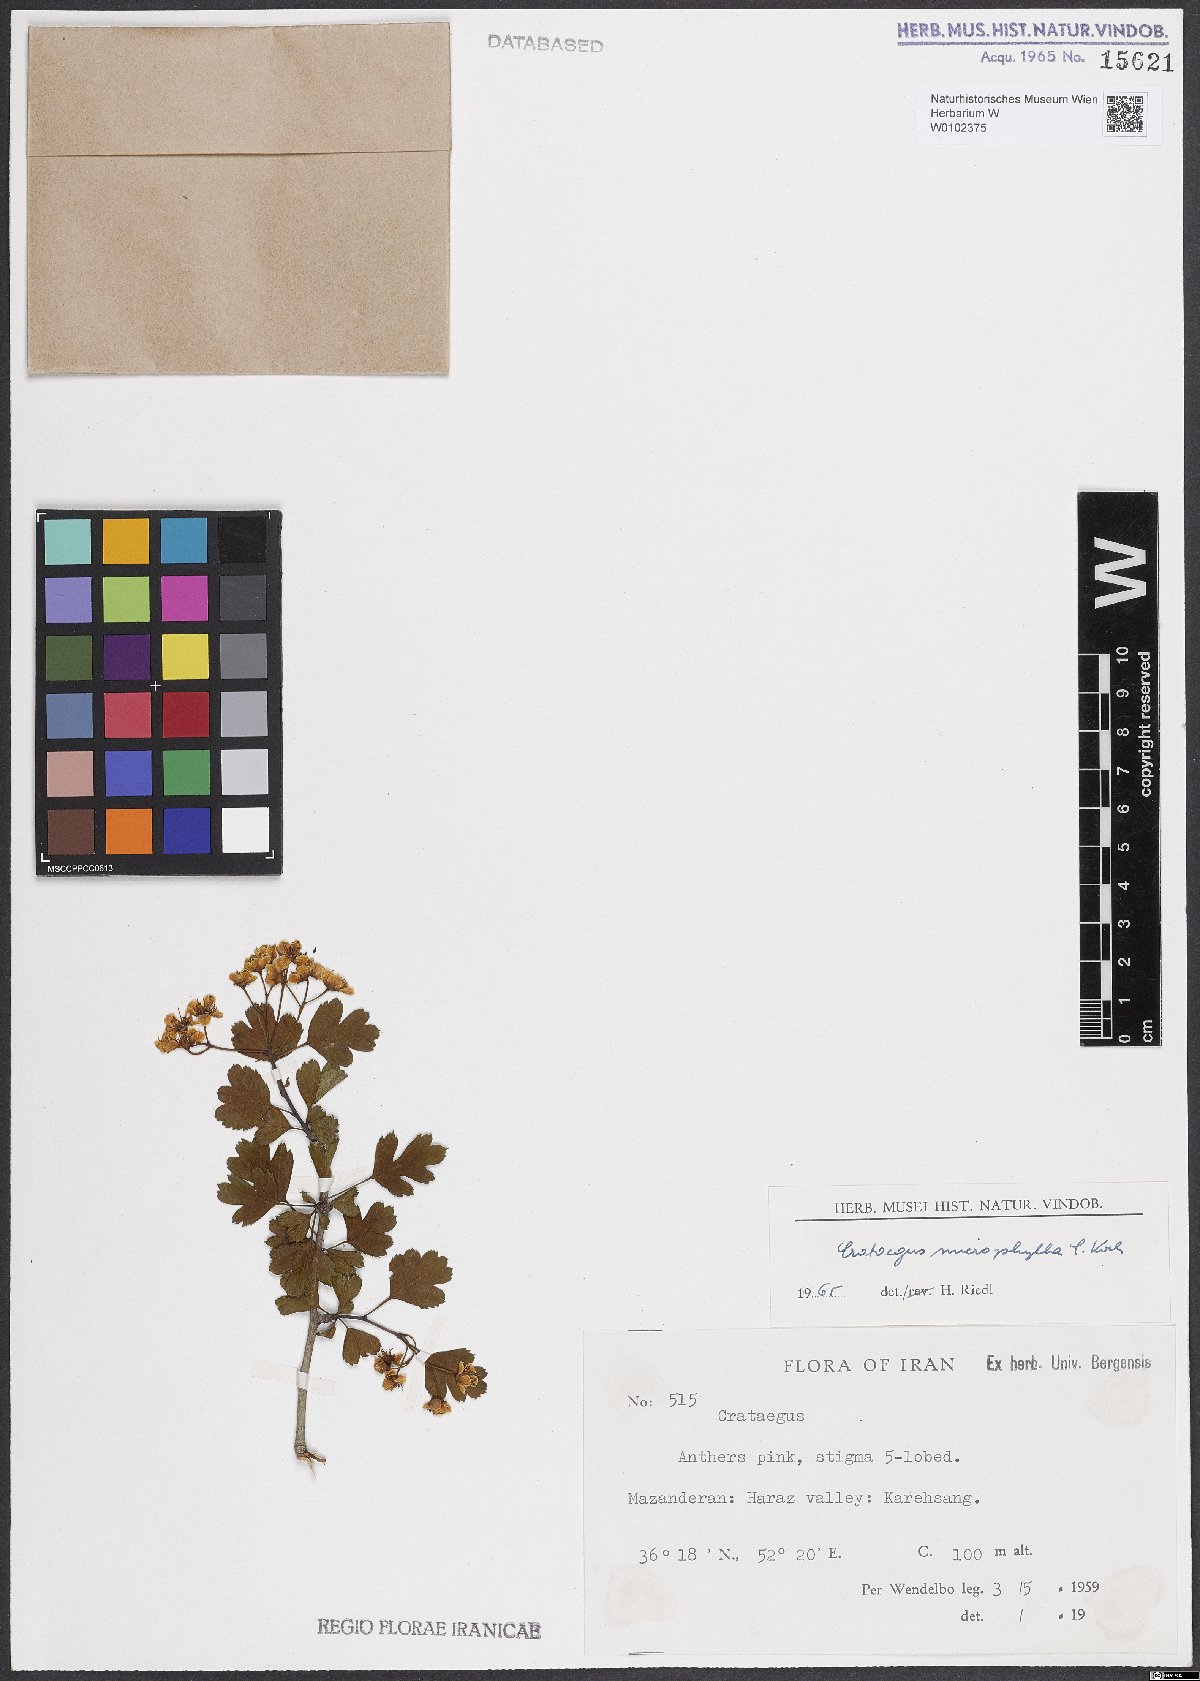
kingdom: Plantae
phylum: Tracheophyta
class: Magnoliopsida
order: Rosales
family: Rosaceae
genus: Crataegus
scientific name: Crataegus microphylla
